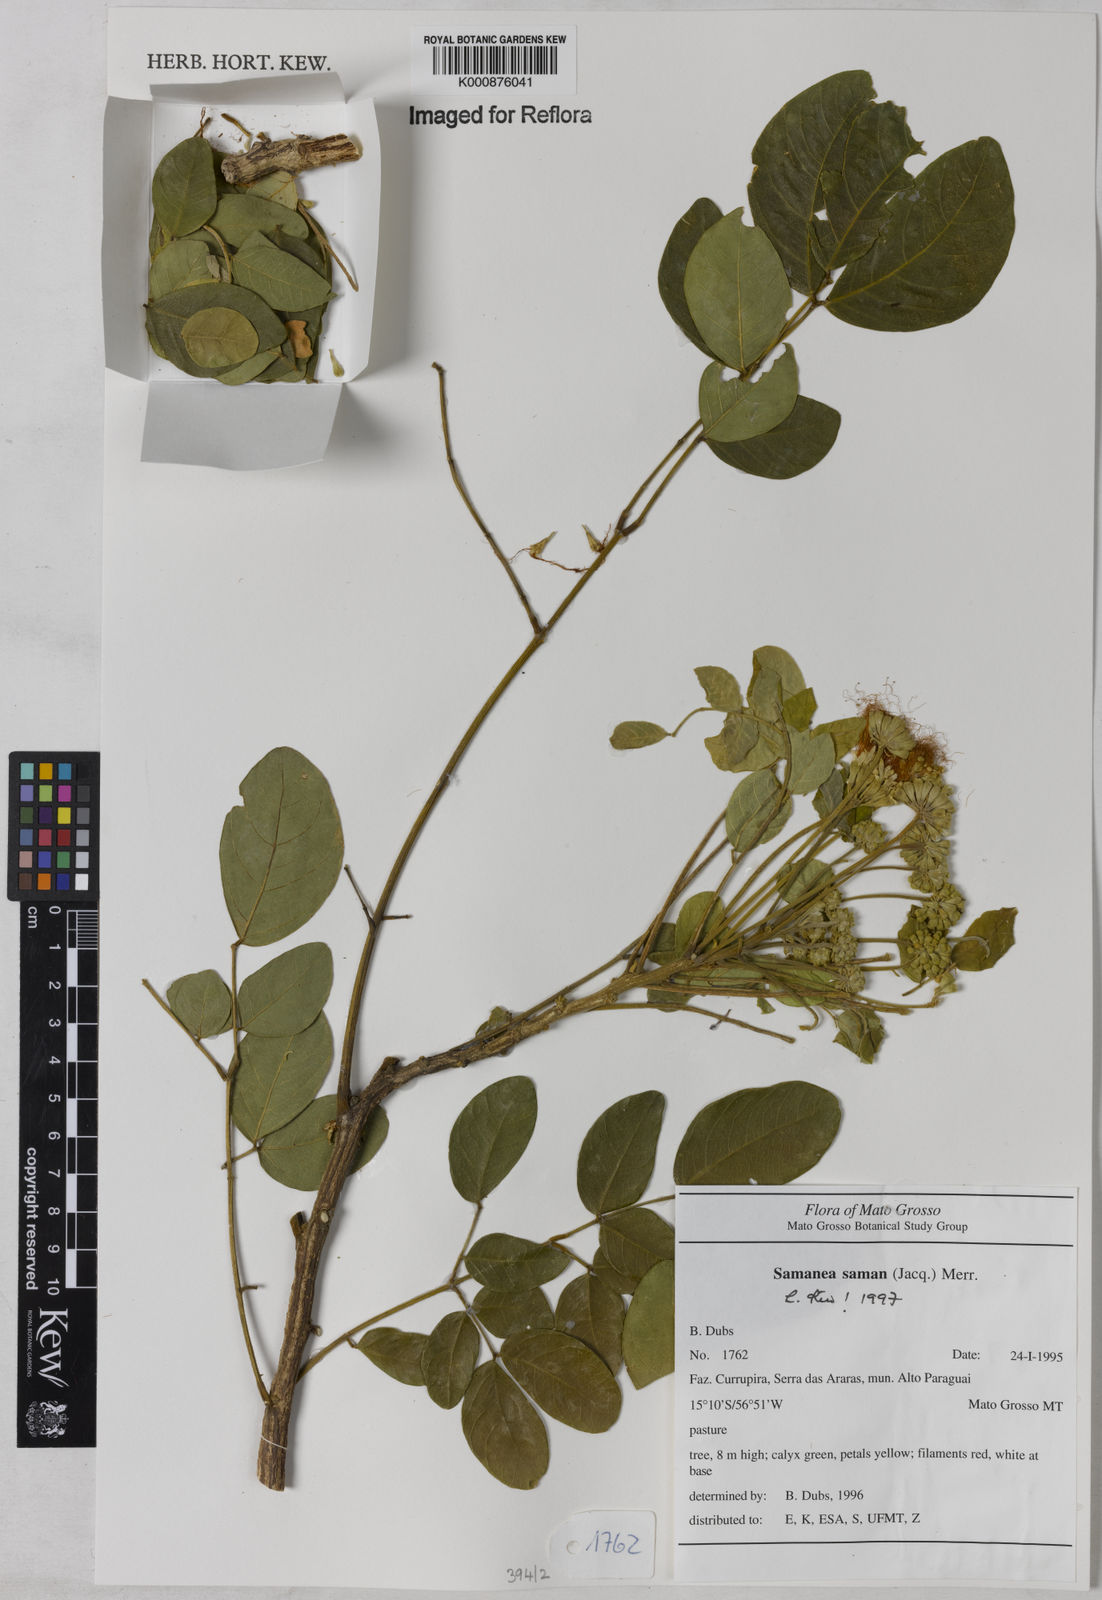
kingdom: Plantae
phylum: Tracheophyta
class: Magnoliopsida
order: Fabales
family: Fabaceae
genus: Samanea
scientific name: Samanea saman
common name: Raintree
